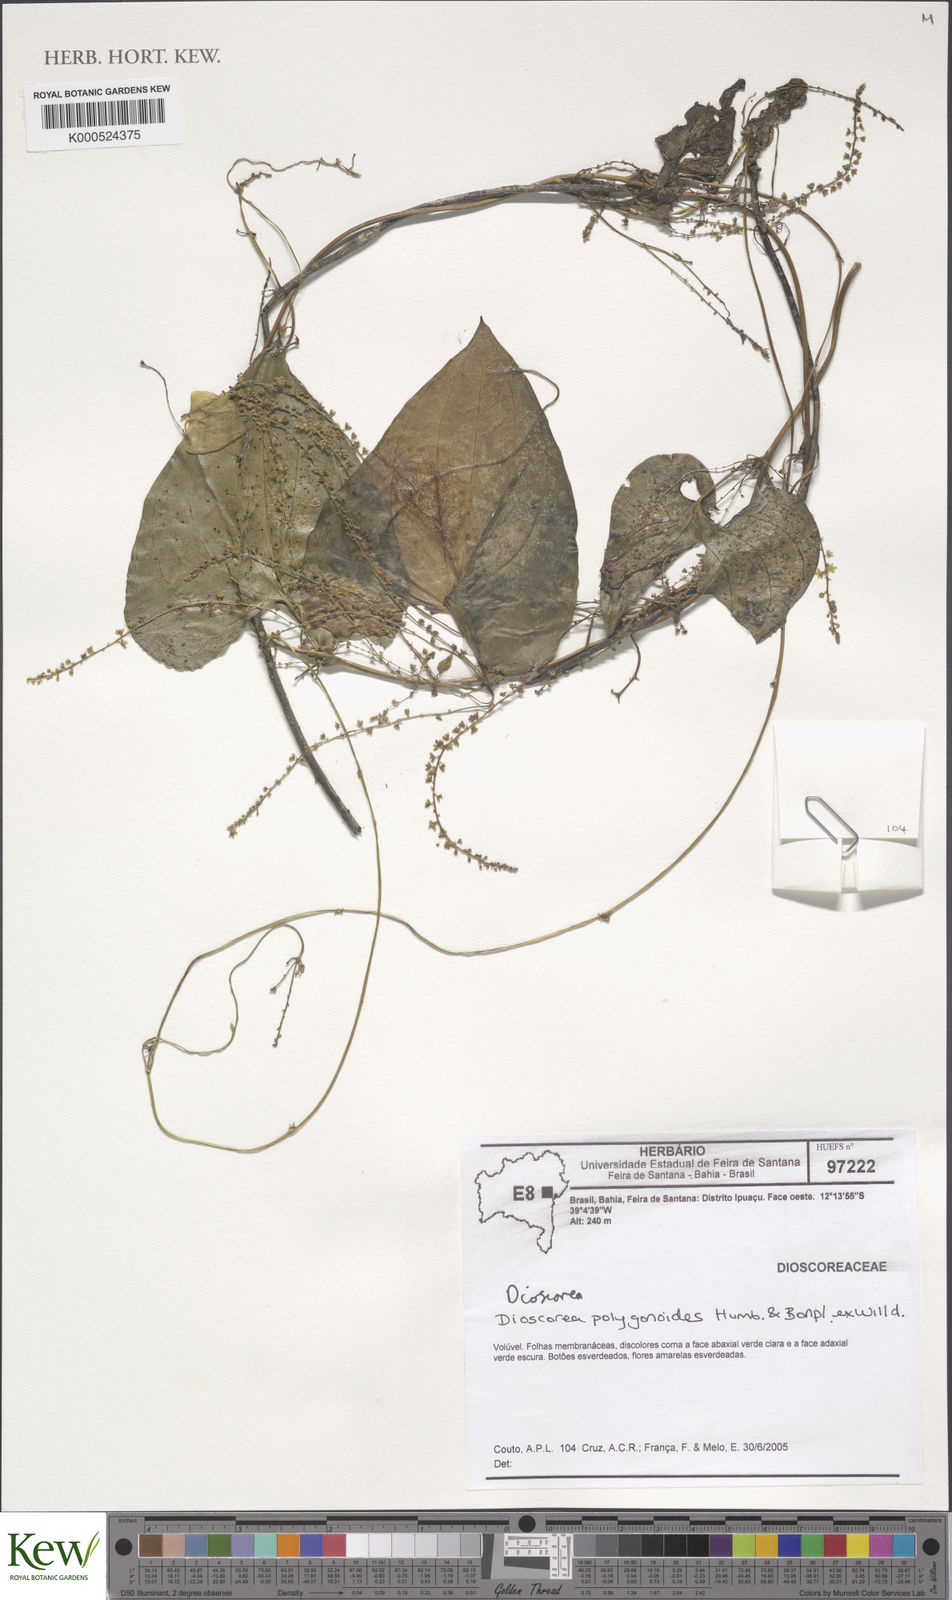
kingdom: Plantae
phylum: Tracheophyta
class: Liliopsida
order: Dioscoreales
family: Dioscoreaceae
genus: Dioscorea
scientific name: Dioscorea
